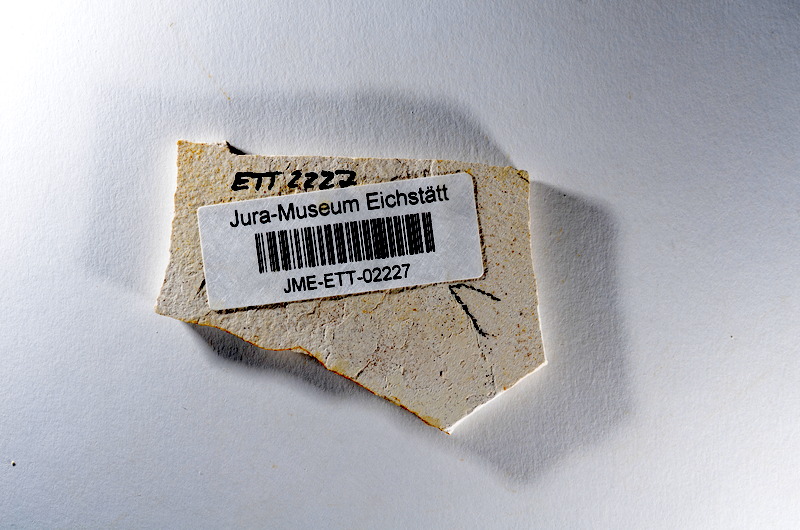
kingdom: Animalia
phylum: Chordata
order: Salmoniformes
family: Orthogonikleithridae
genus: Orthogonikleithrus
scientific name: Orthogonikleithrus hoelli
